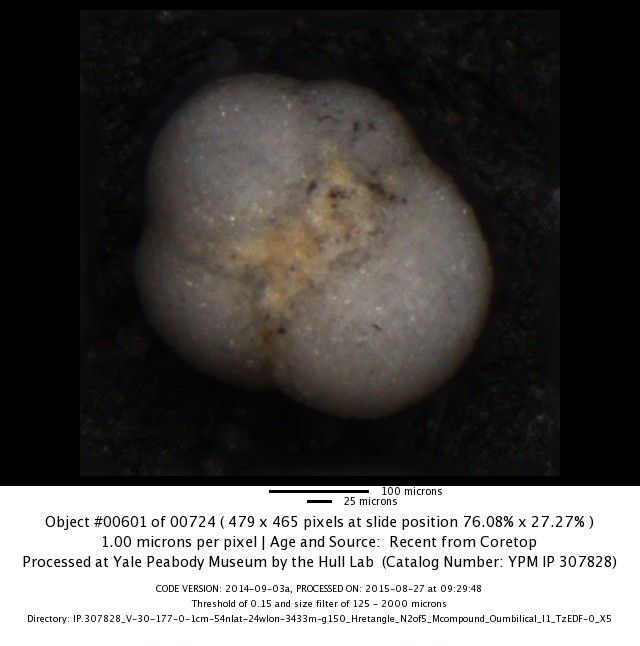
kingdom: Chromista
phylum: Foraminifera
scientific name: Foraminifera
